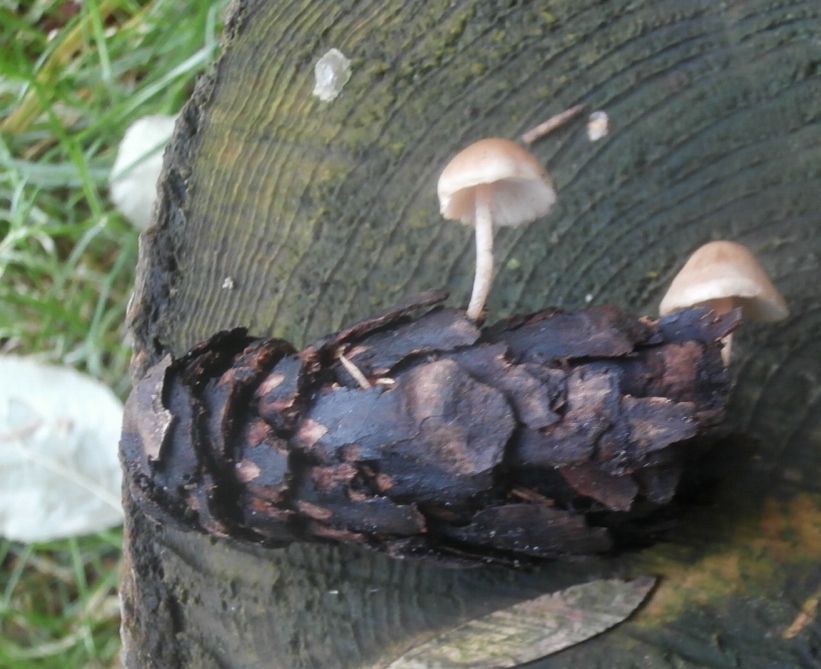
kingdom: Fungi
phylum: Basidiomycota
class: Agaricomycetes
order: Agaricales
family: Marasmiaceae
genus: Baeospora
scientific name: Baeospora myosura
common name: koglebruskhat
